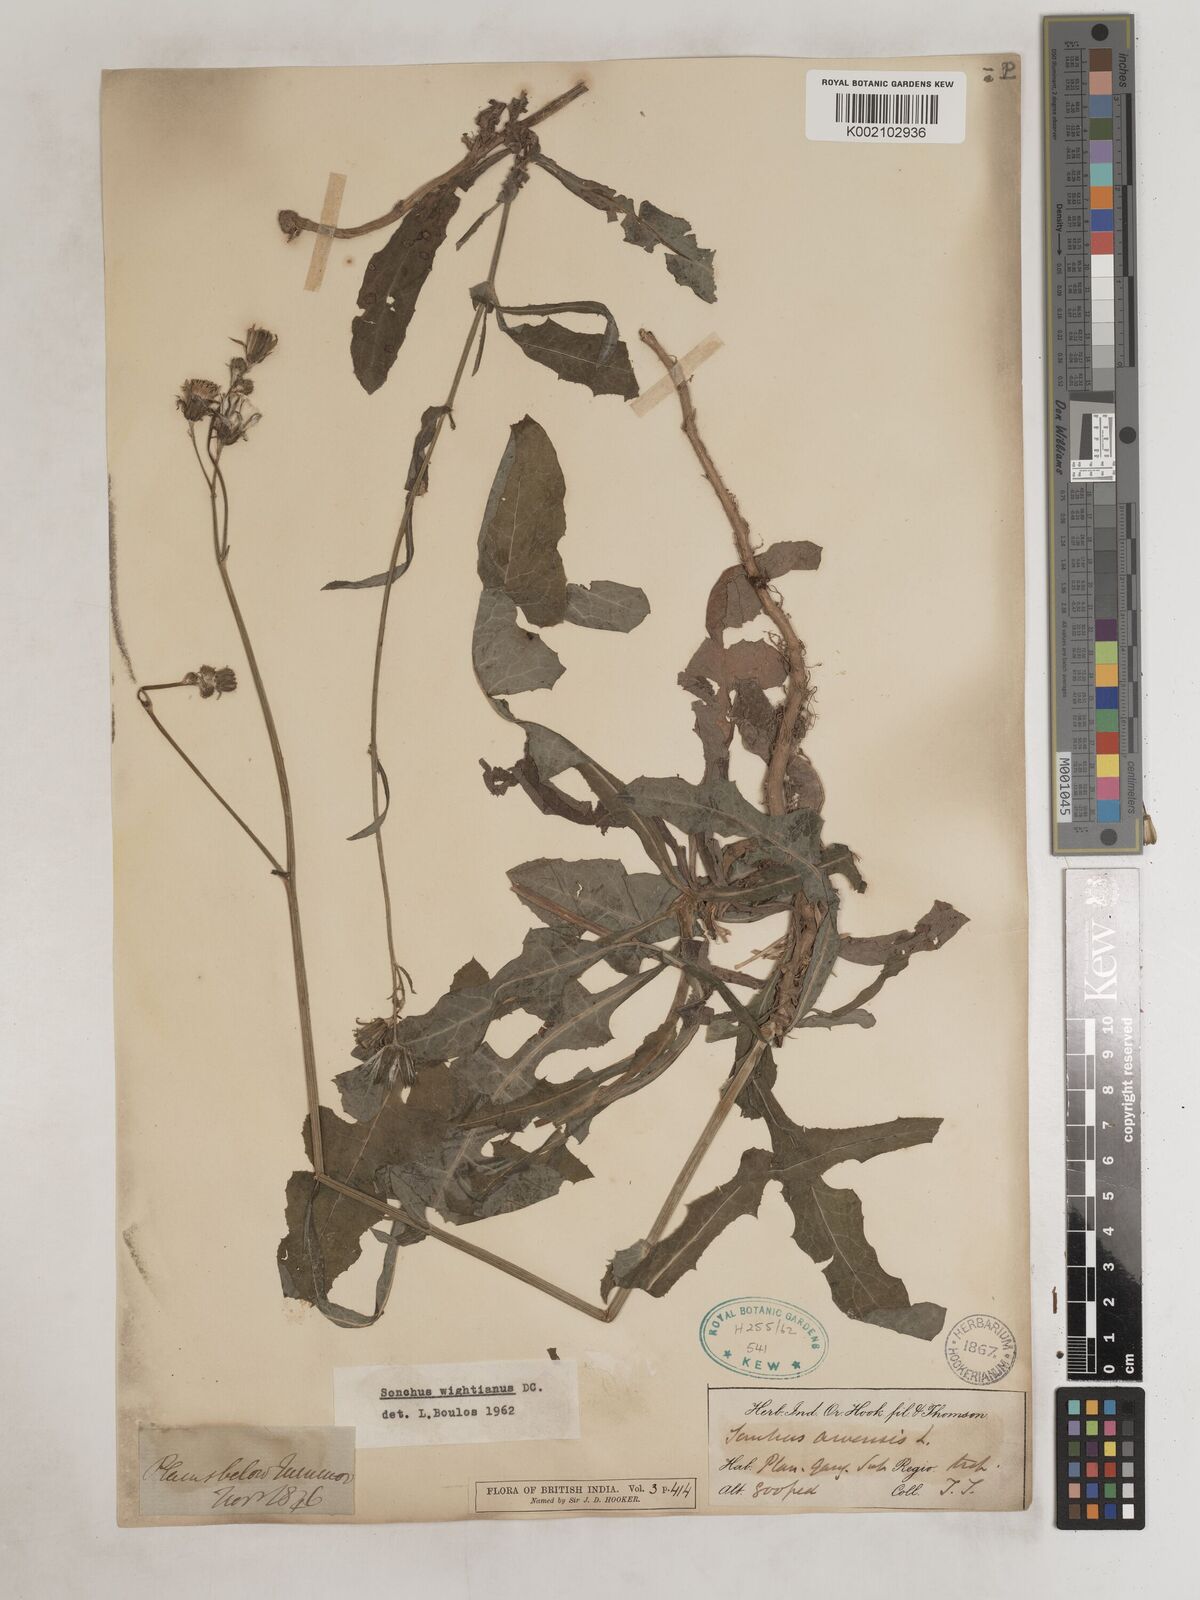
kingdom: Plantae
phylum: Tracheophyta
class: Magnoliopsida
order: Asterales
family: Asteraceae
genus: Sonchus
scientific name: Sonchus arvensis
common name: Perennial sow-thistle
